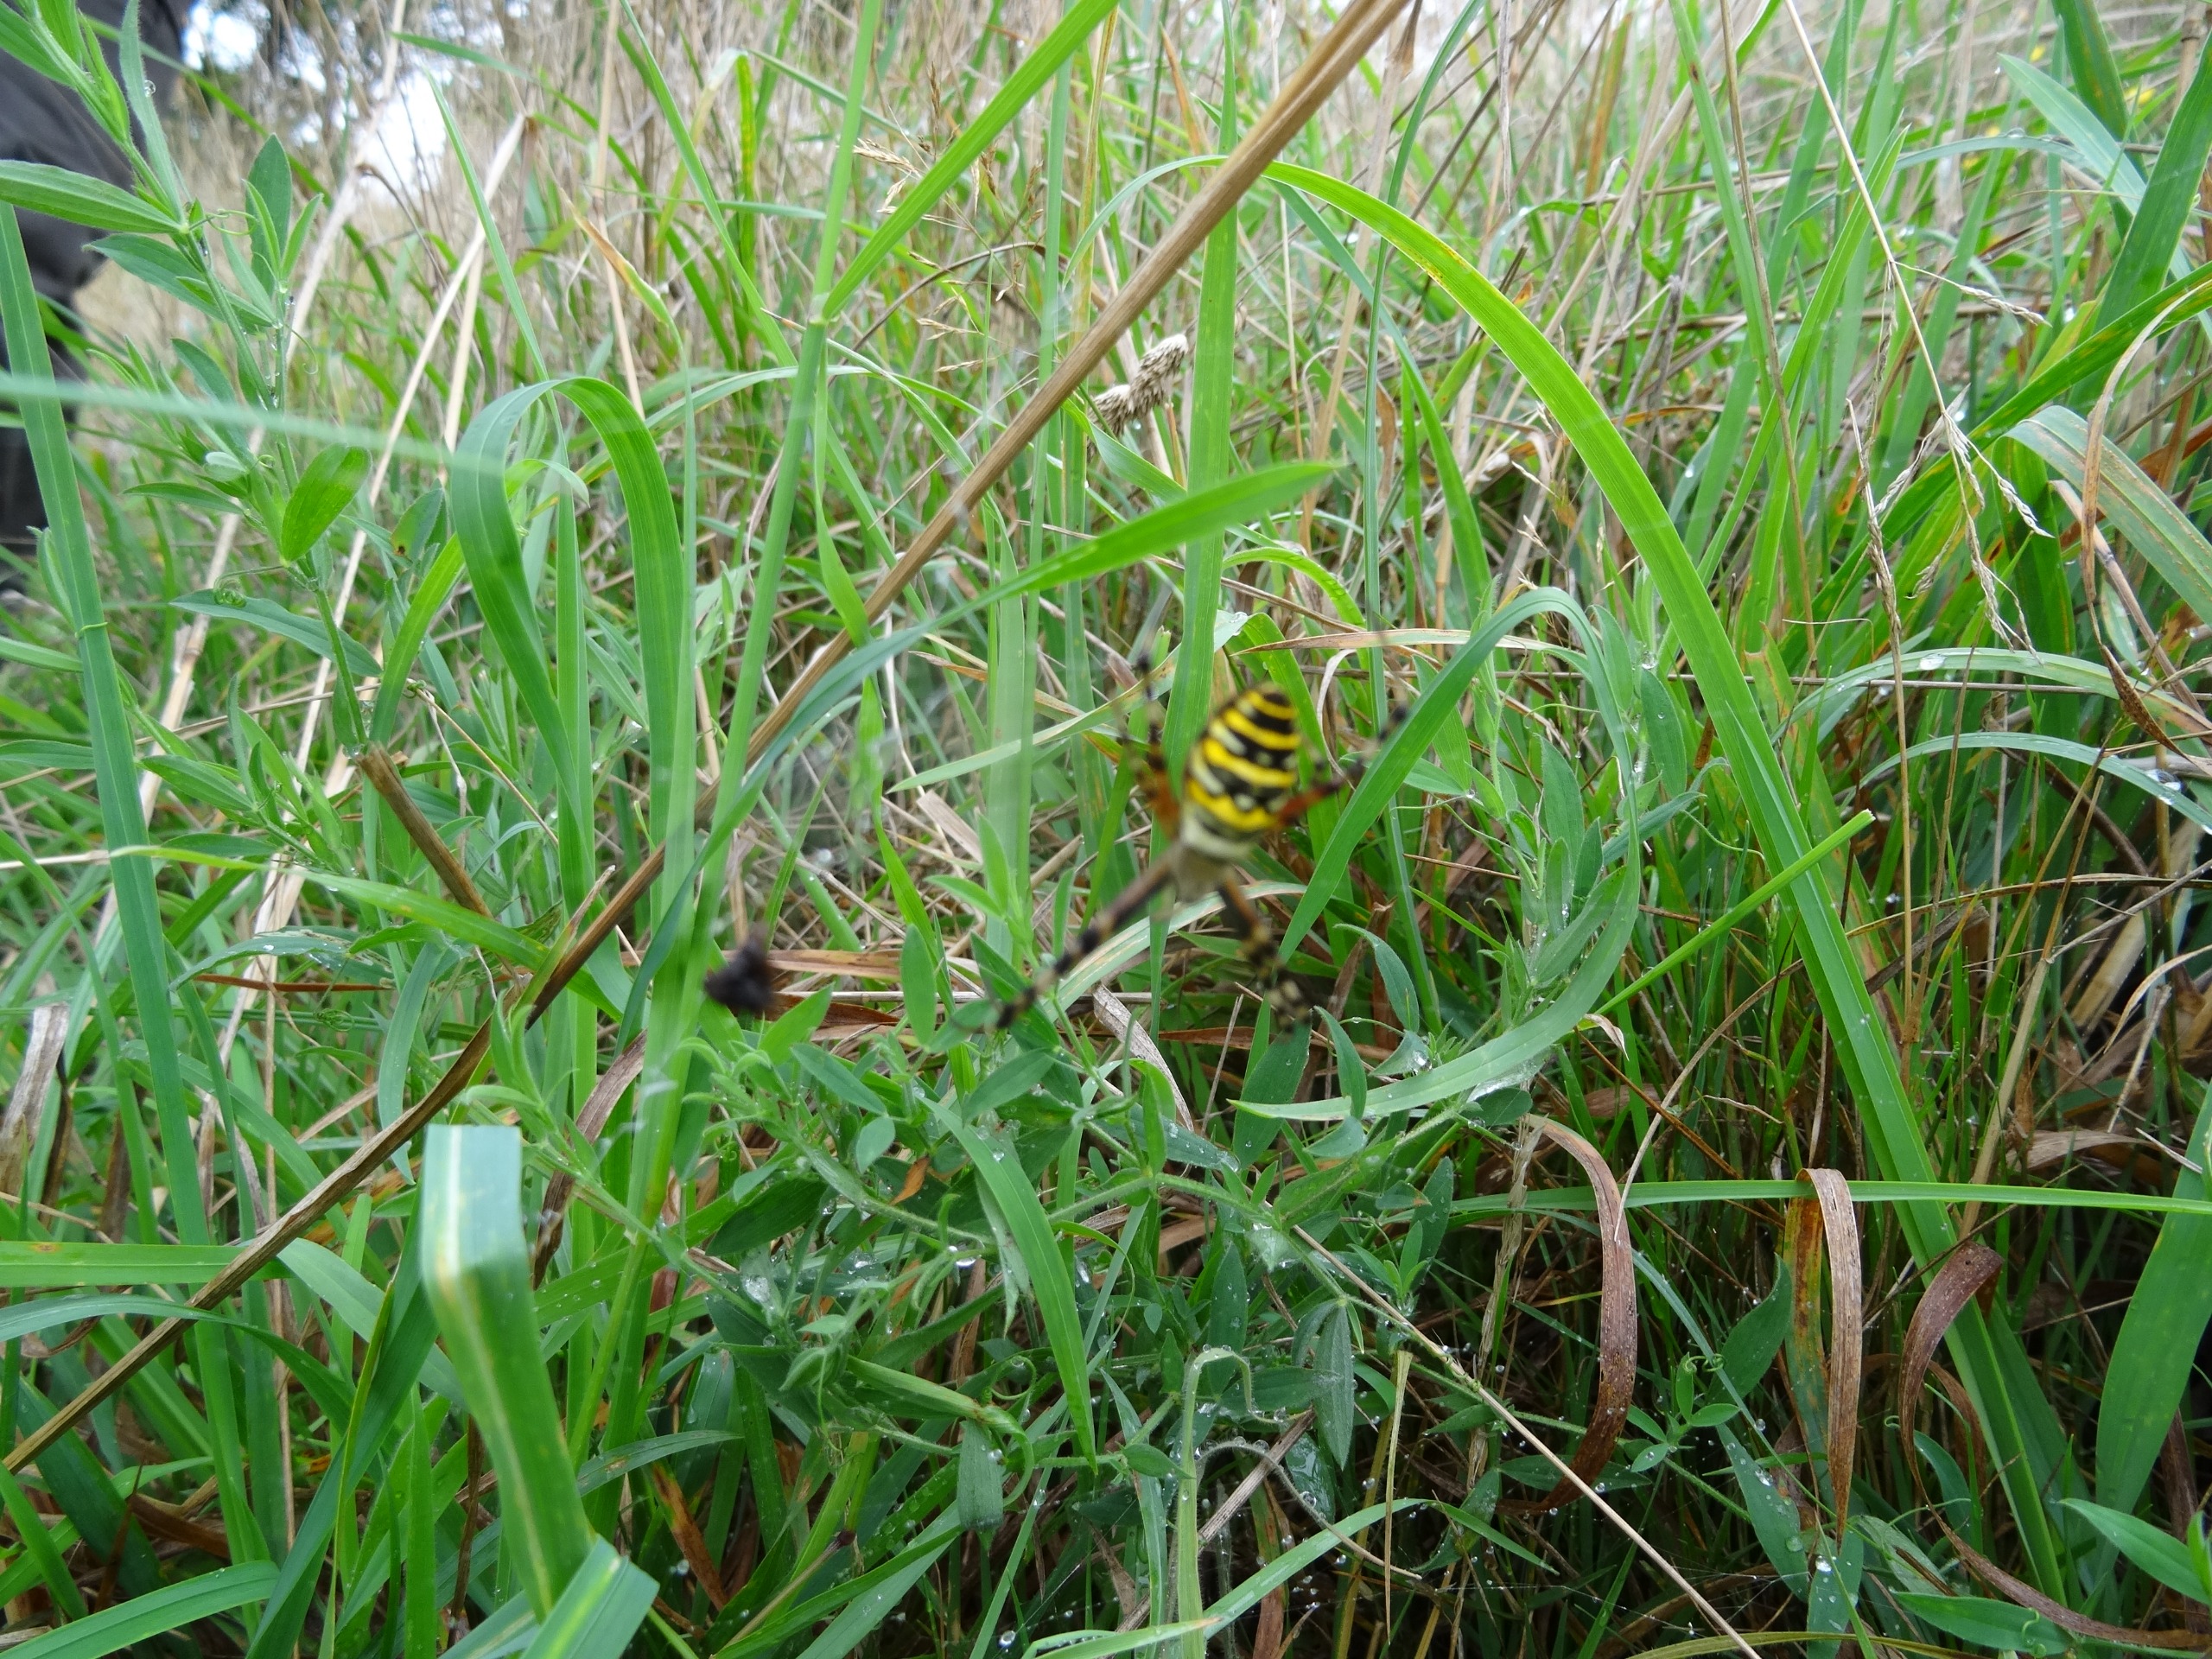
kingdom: Animalia
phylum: Arthropoda
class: Arachnida
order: Araneae
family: Araneidae
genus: Argiope
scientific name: Argiope bruennichi
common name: Hvepseedderkop
